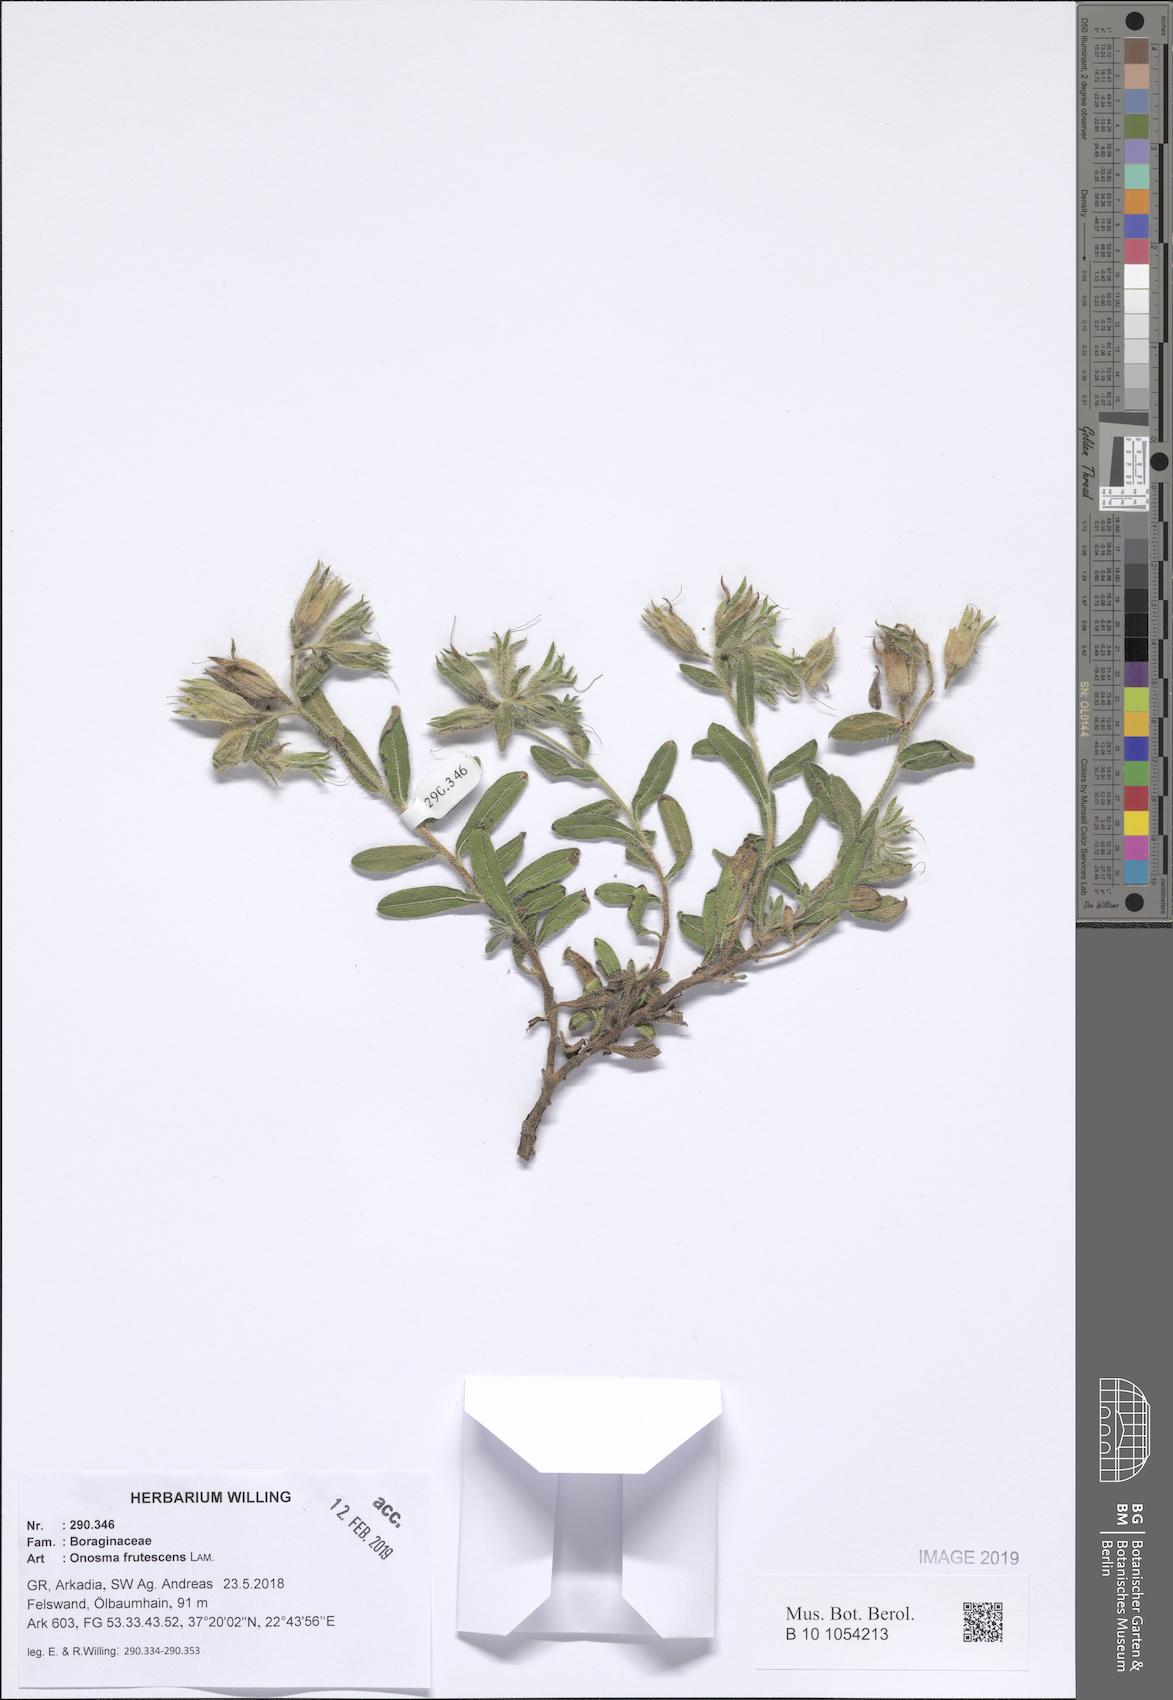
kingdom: Plantae
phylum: Tracheophyta
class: Magnoliopsida
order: Boraginales
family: Boraginaceae
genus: Onosma
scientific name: Onosma frutescens
